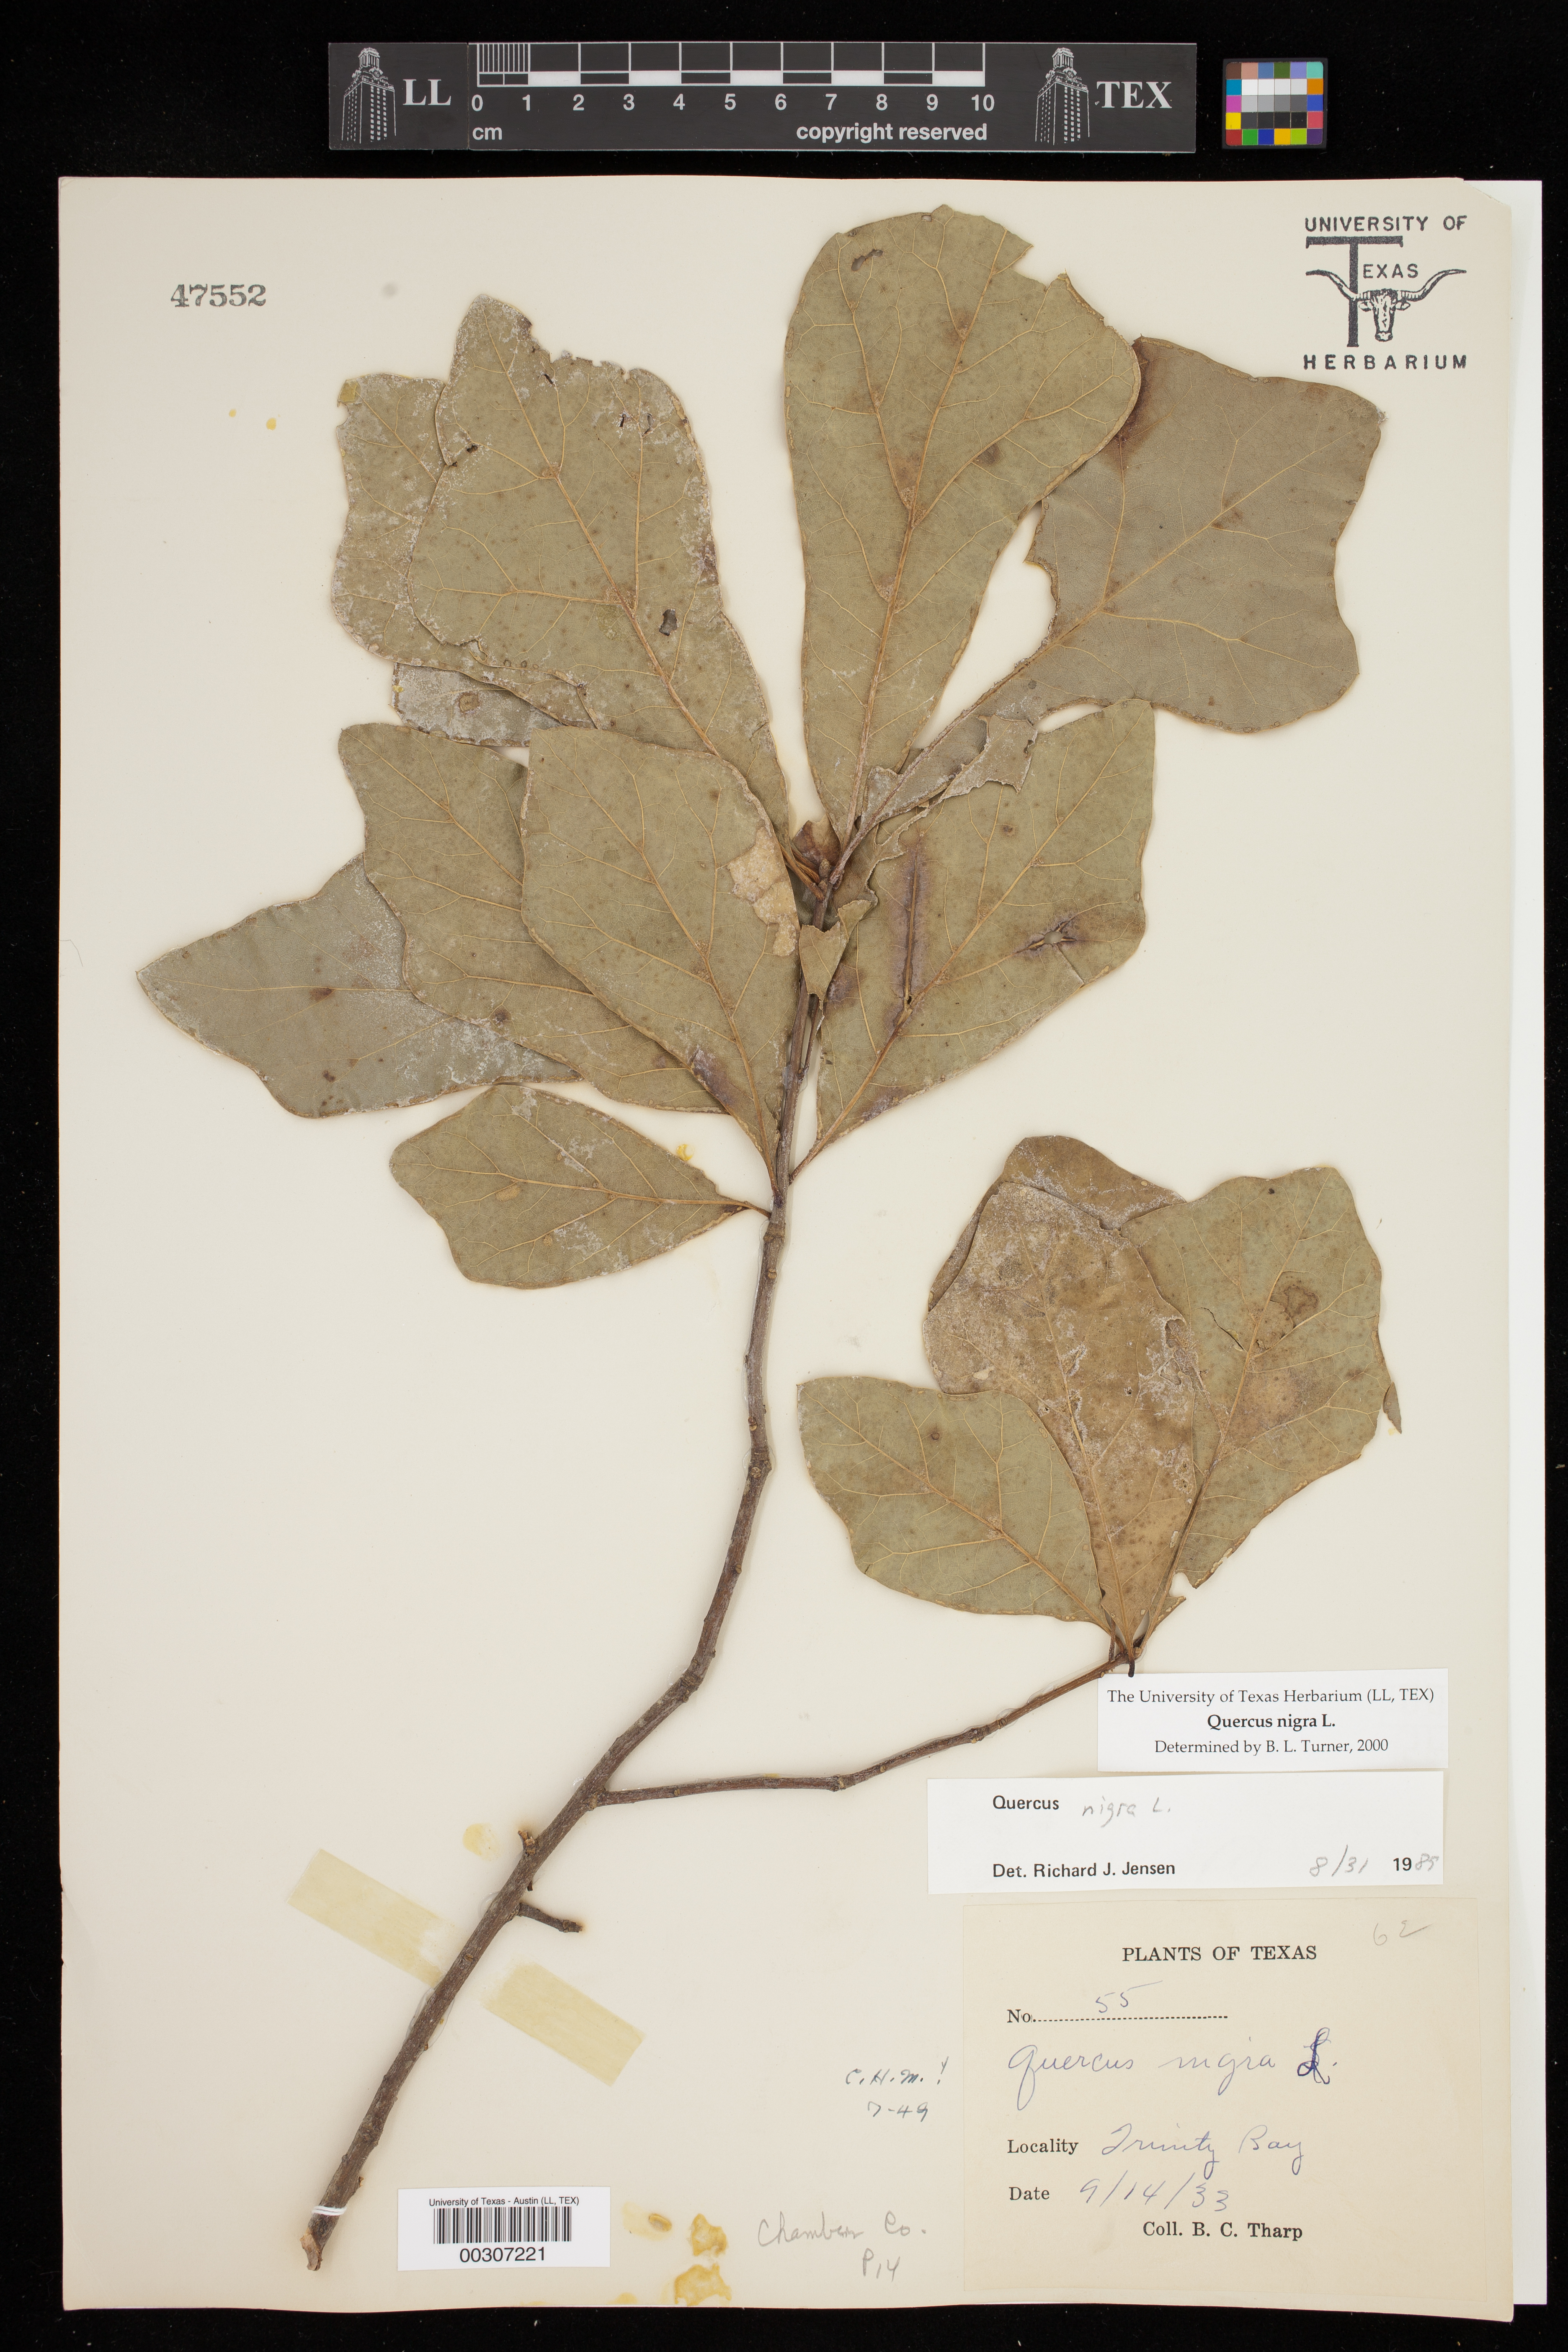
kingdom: Plantae
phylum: Tracheophyta
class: Magnoliopsida
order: Fagales
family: Fagaceae
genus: Quercus
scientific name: Quercus nigra
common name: Water oak
